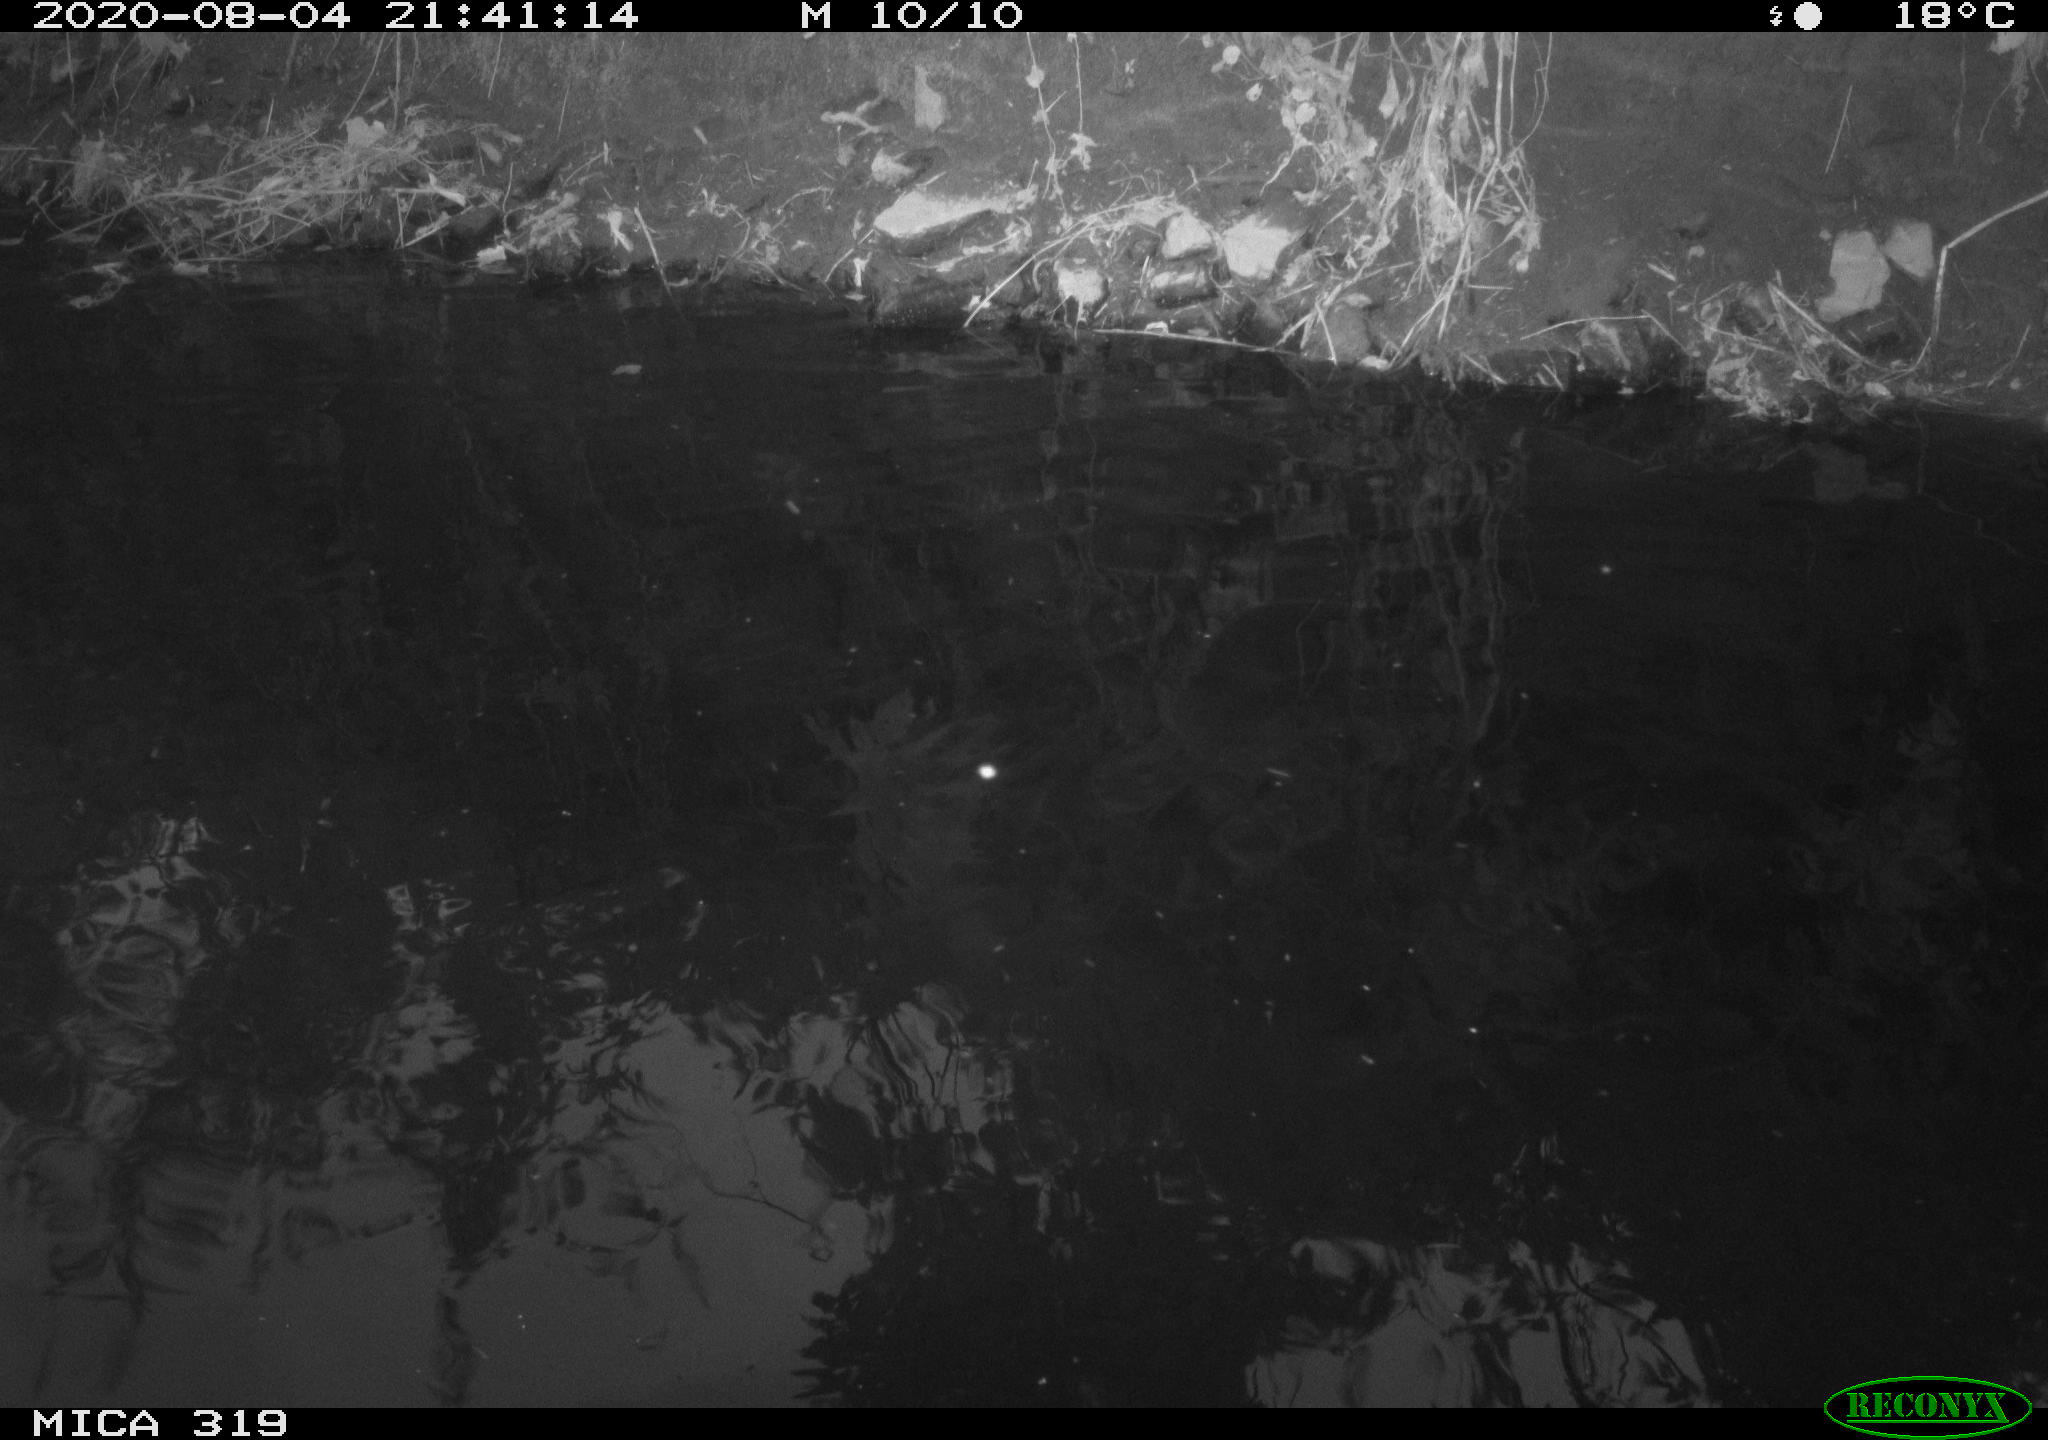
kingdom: Animalia
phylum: Chordata
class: Aves
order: Anseriformes
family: Anatidae
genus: Anas
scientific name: Anas platyrhynchos
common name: Mallard
